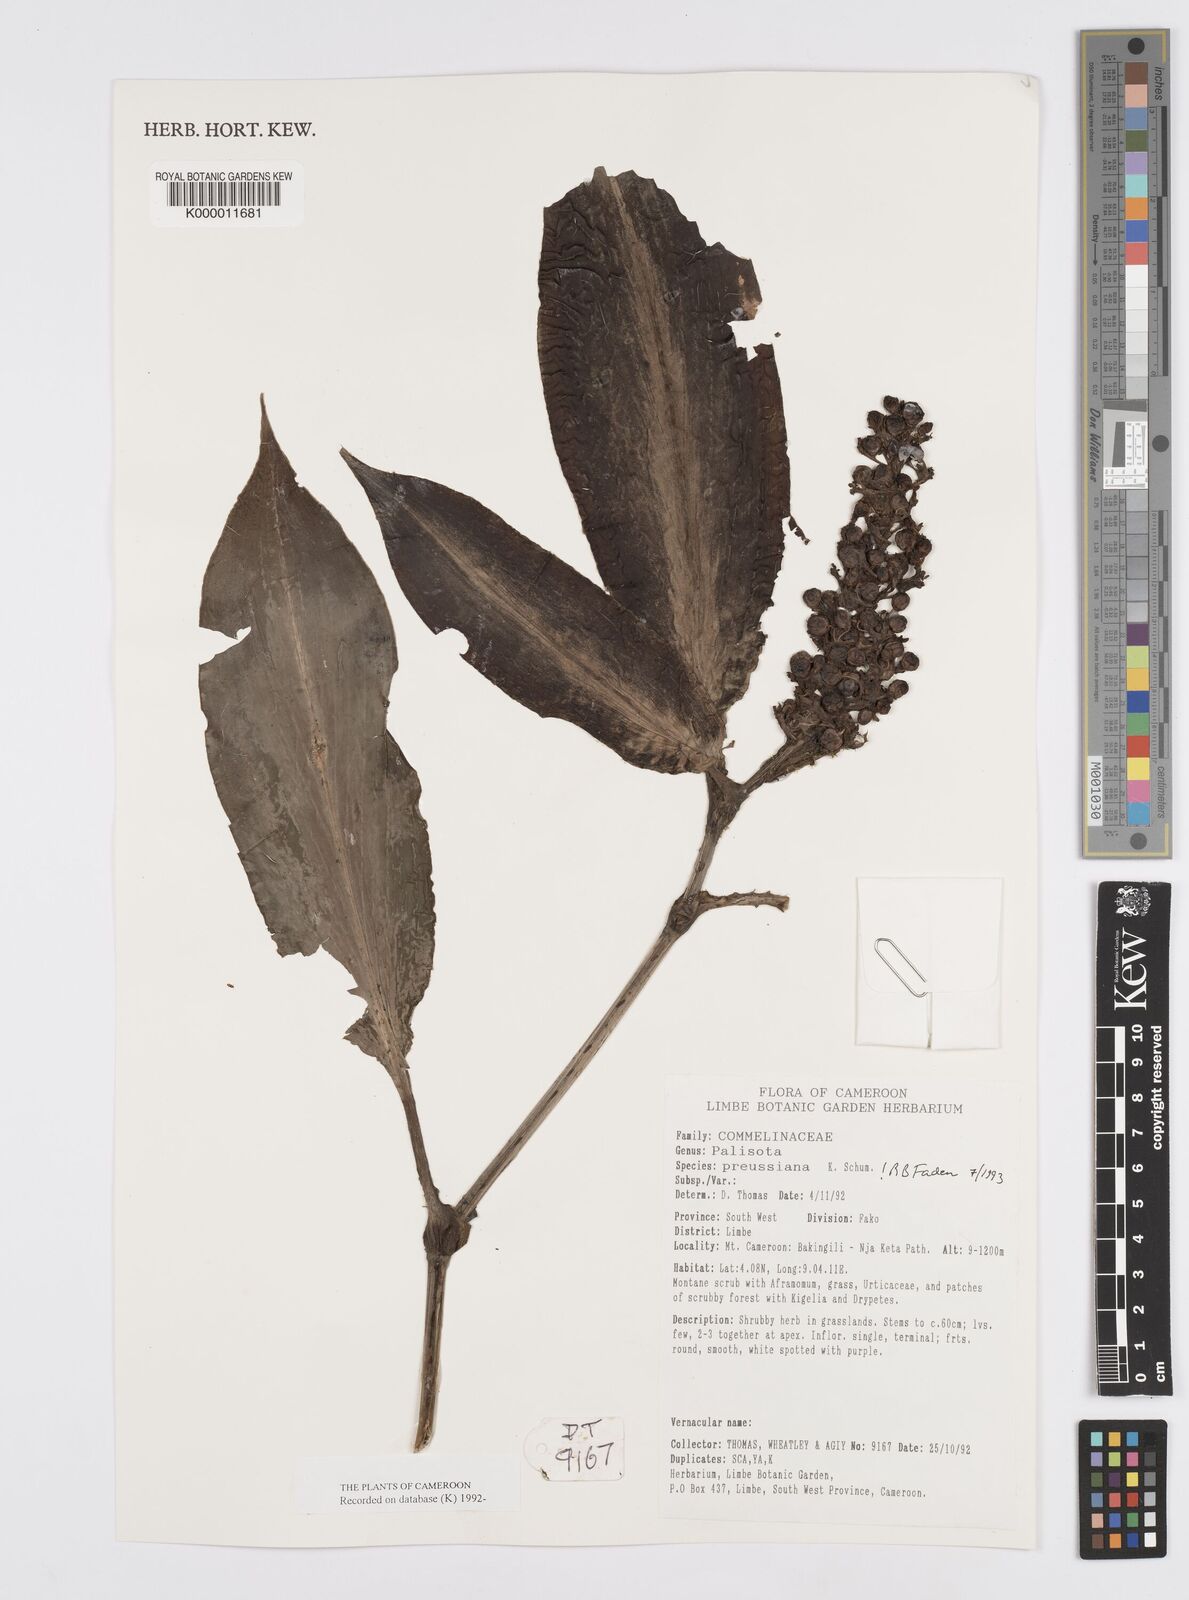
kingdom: Plantae
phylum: Tracheophyta
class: Liliopsida
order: Commelinales
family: Commelinaceae
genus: Palisota
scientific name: Palisota preussiana
